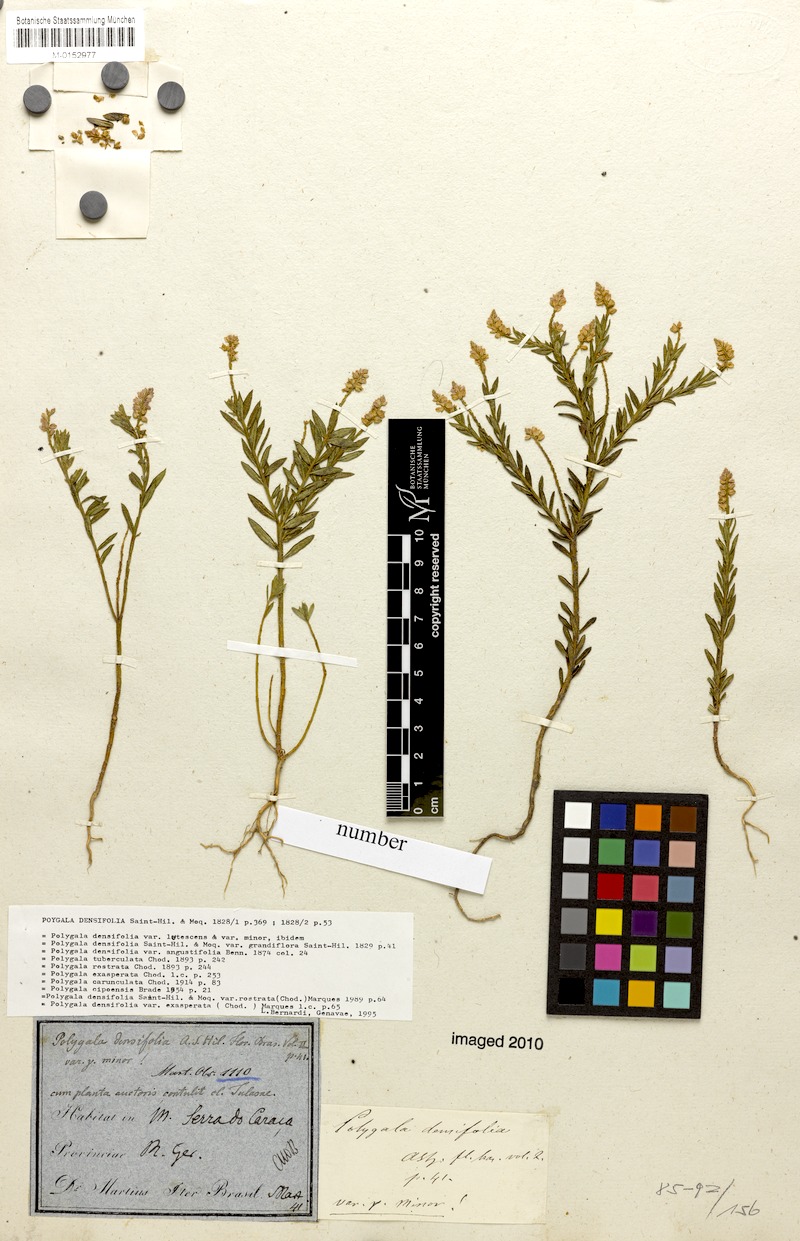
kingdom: Plantae
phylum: Tracheophyta
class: Magnoliopsida
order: Fabales
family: Polygalaceae
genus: Polygala
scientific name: Polygala densifolia
